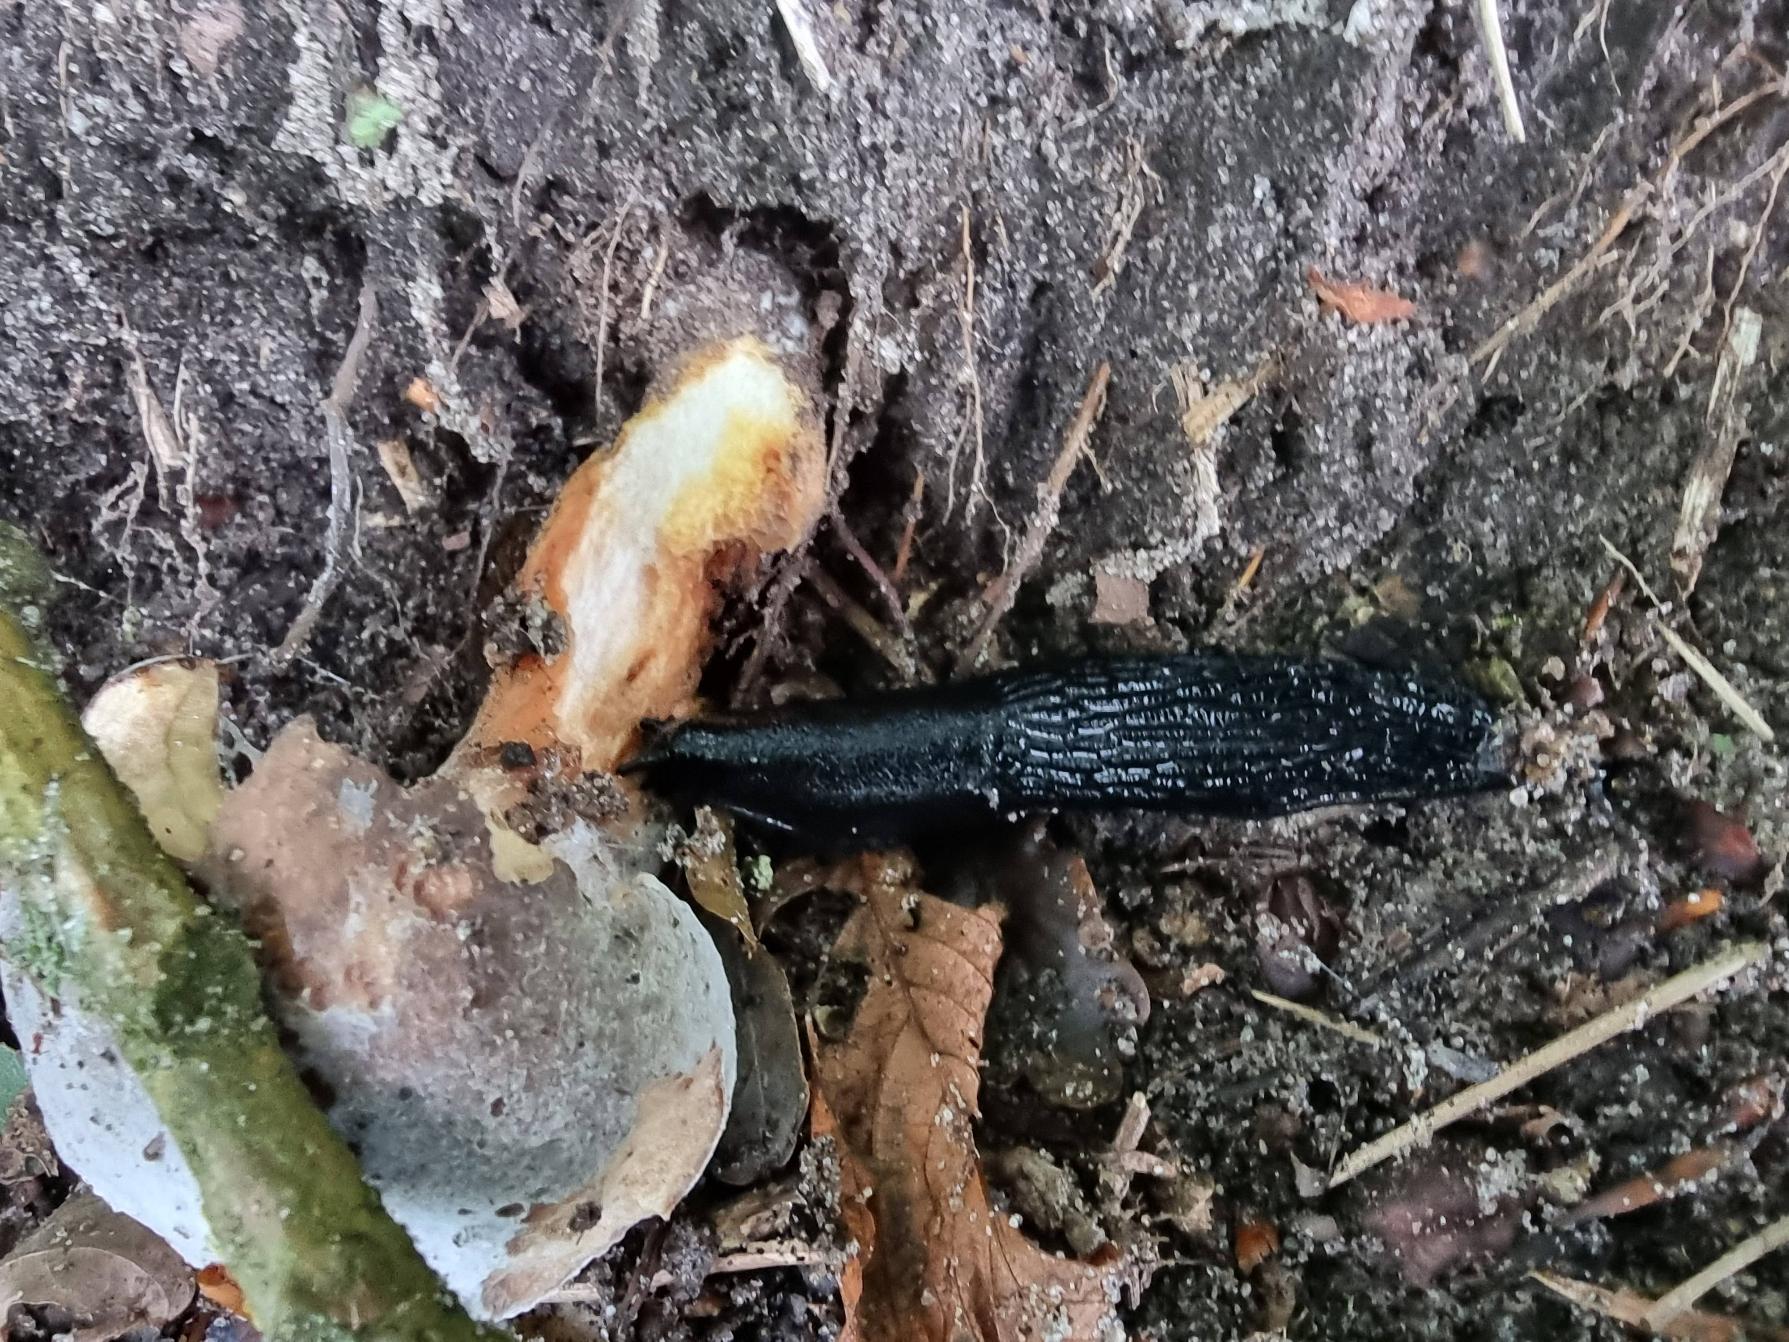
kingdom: Animalia
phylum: Mollusca
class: Gastropoda
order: Stylommatophora
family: Arionidae
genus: Arion
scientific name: Arion ater
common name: Sort skovsnegl
